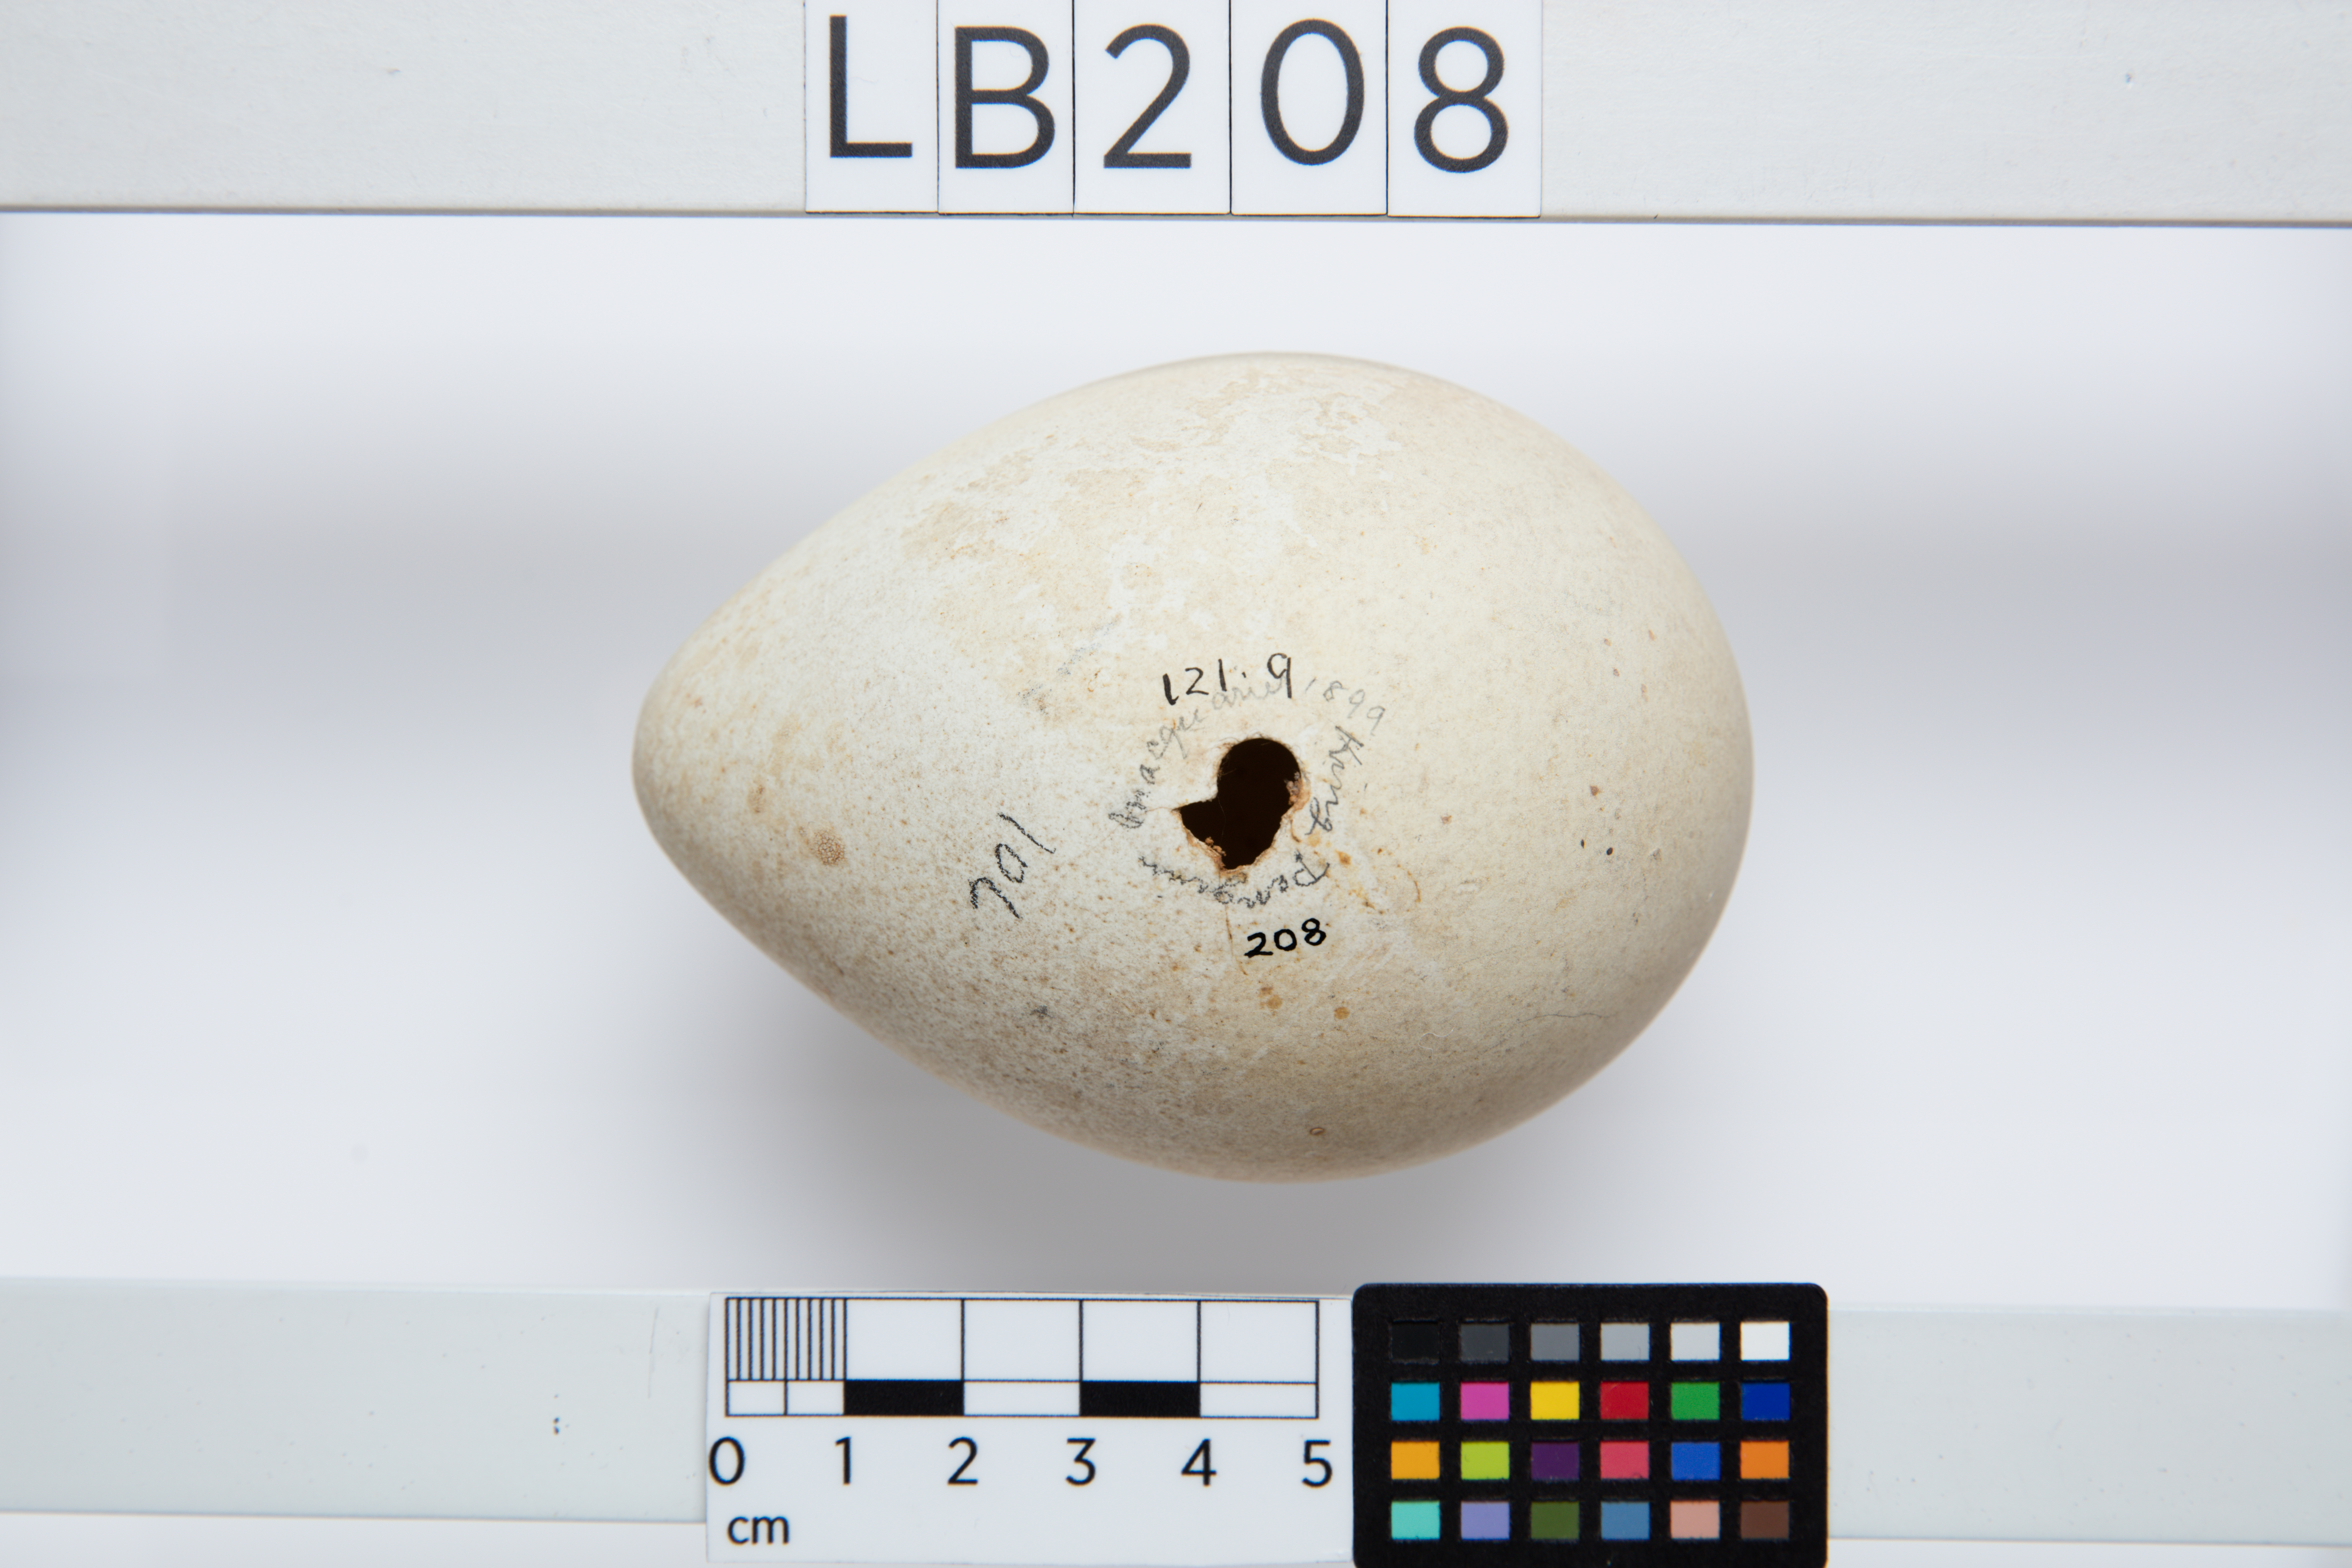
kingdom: Animalia
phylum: Chordata
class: Aves
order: Sphenisciformes
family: Spheniscidae
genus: Aptenodytes
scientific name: Aptenodytes patagonicus
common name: King penguin
